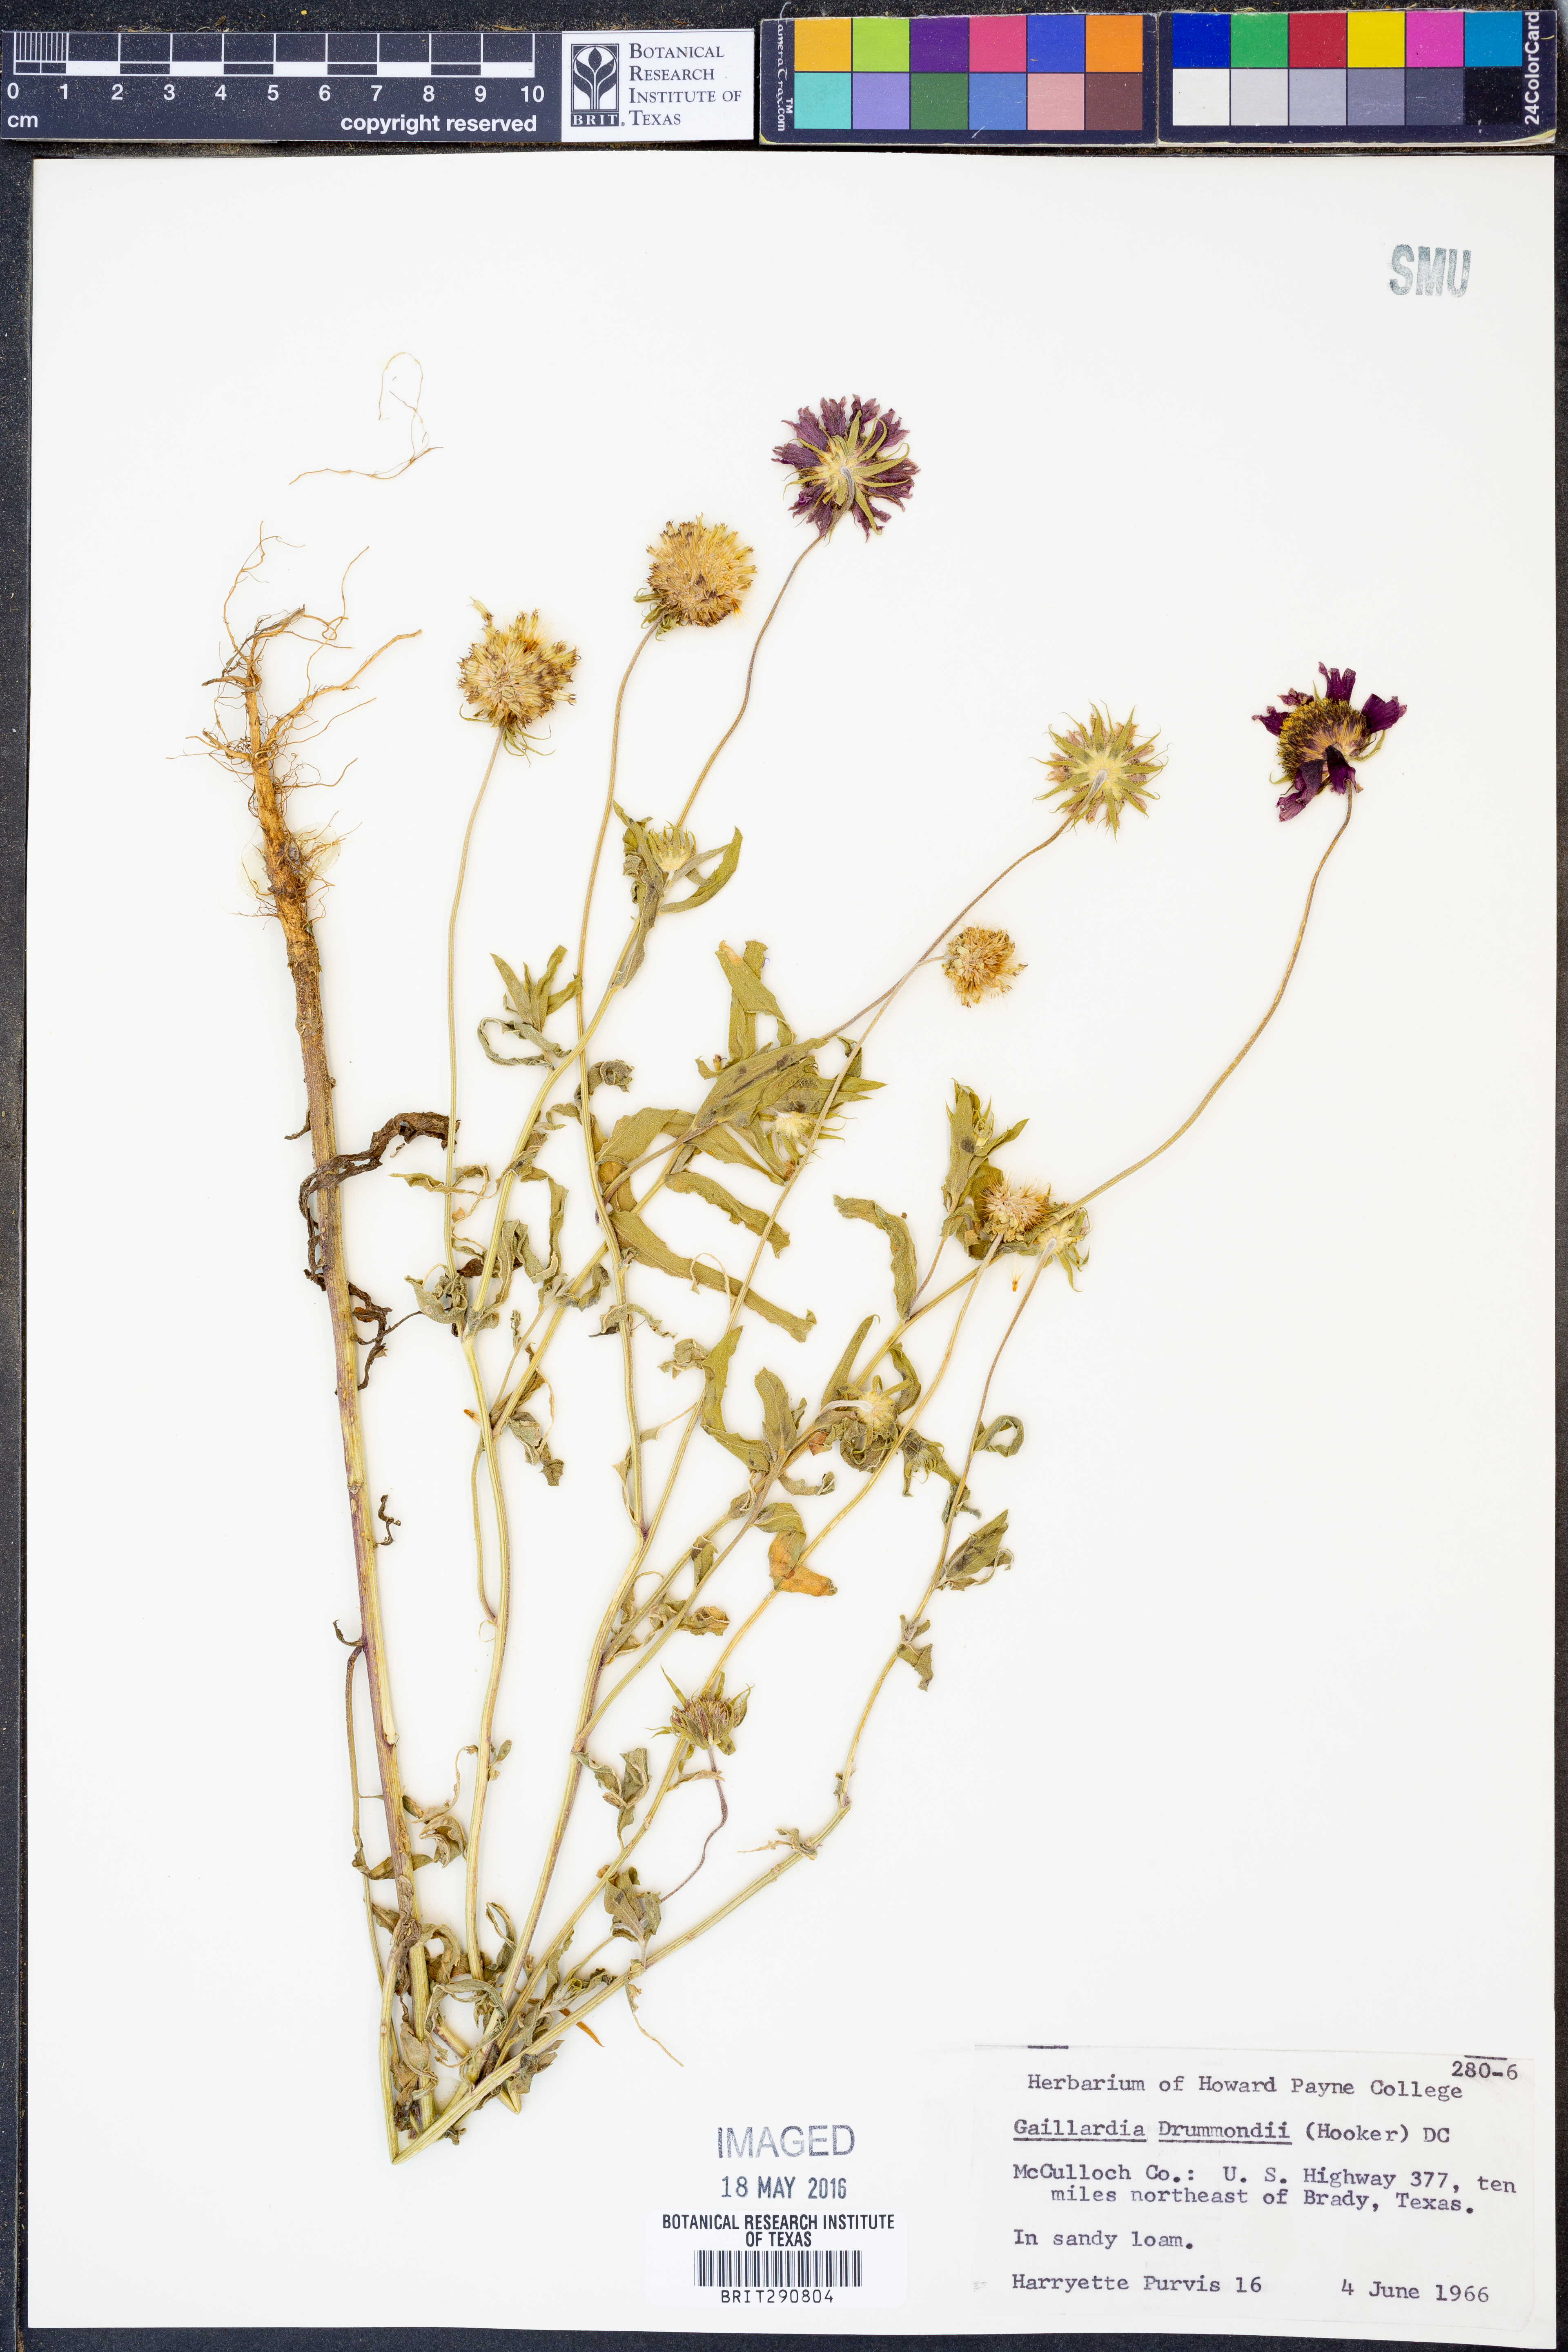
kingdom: Plantae
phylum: Tracheophyta
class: Magnoliopsida
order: Asterales
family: Asteraceae
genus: Gaillardia
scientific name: Gaillardia pulchella
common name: Firewheel
